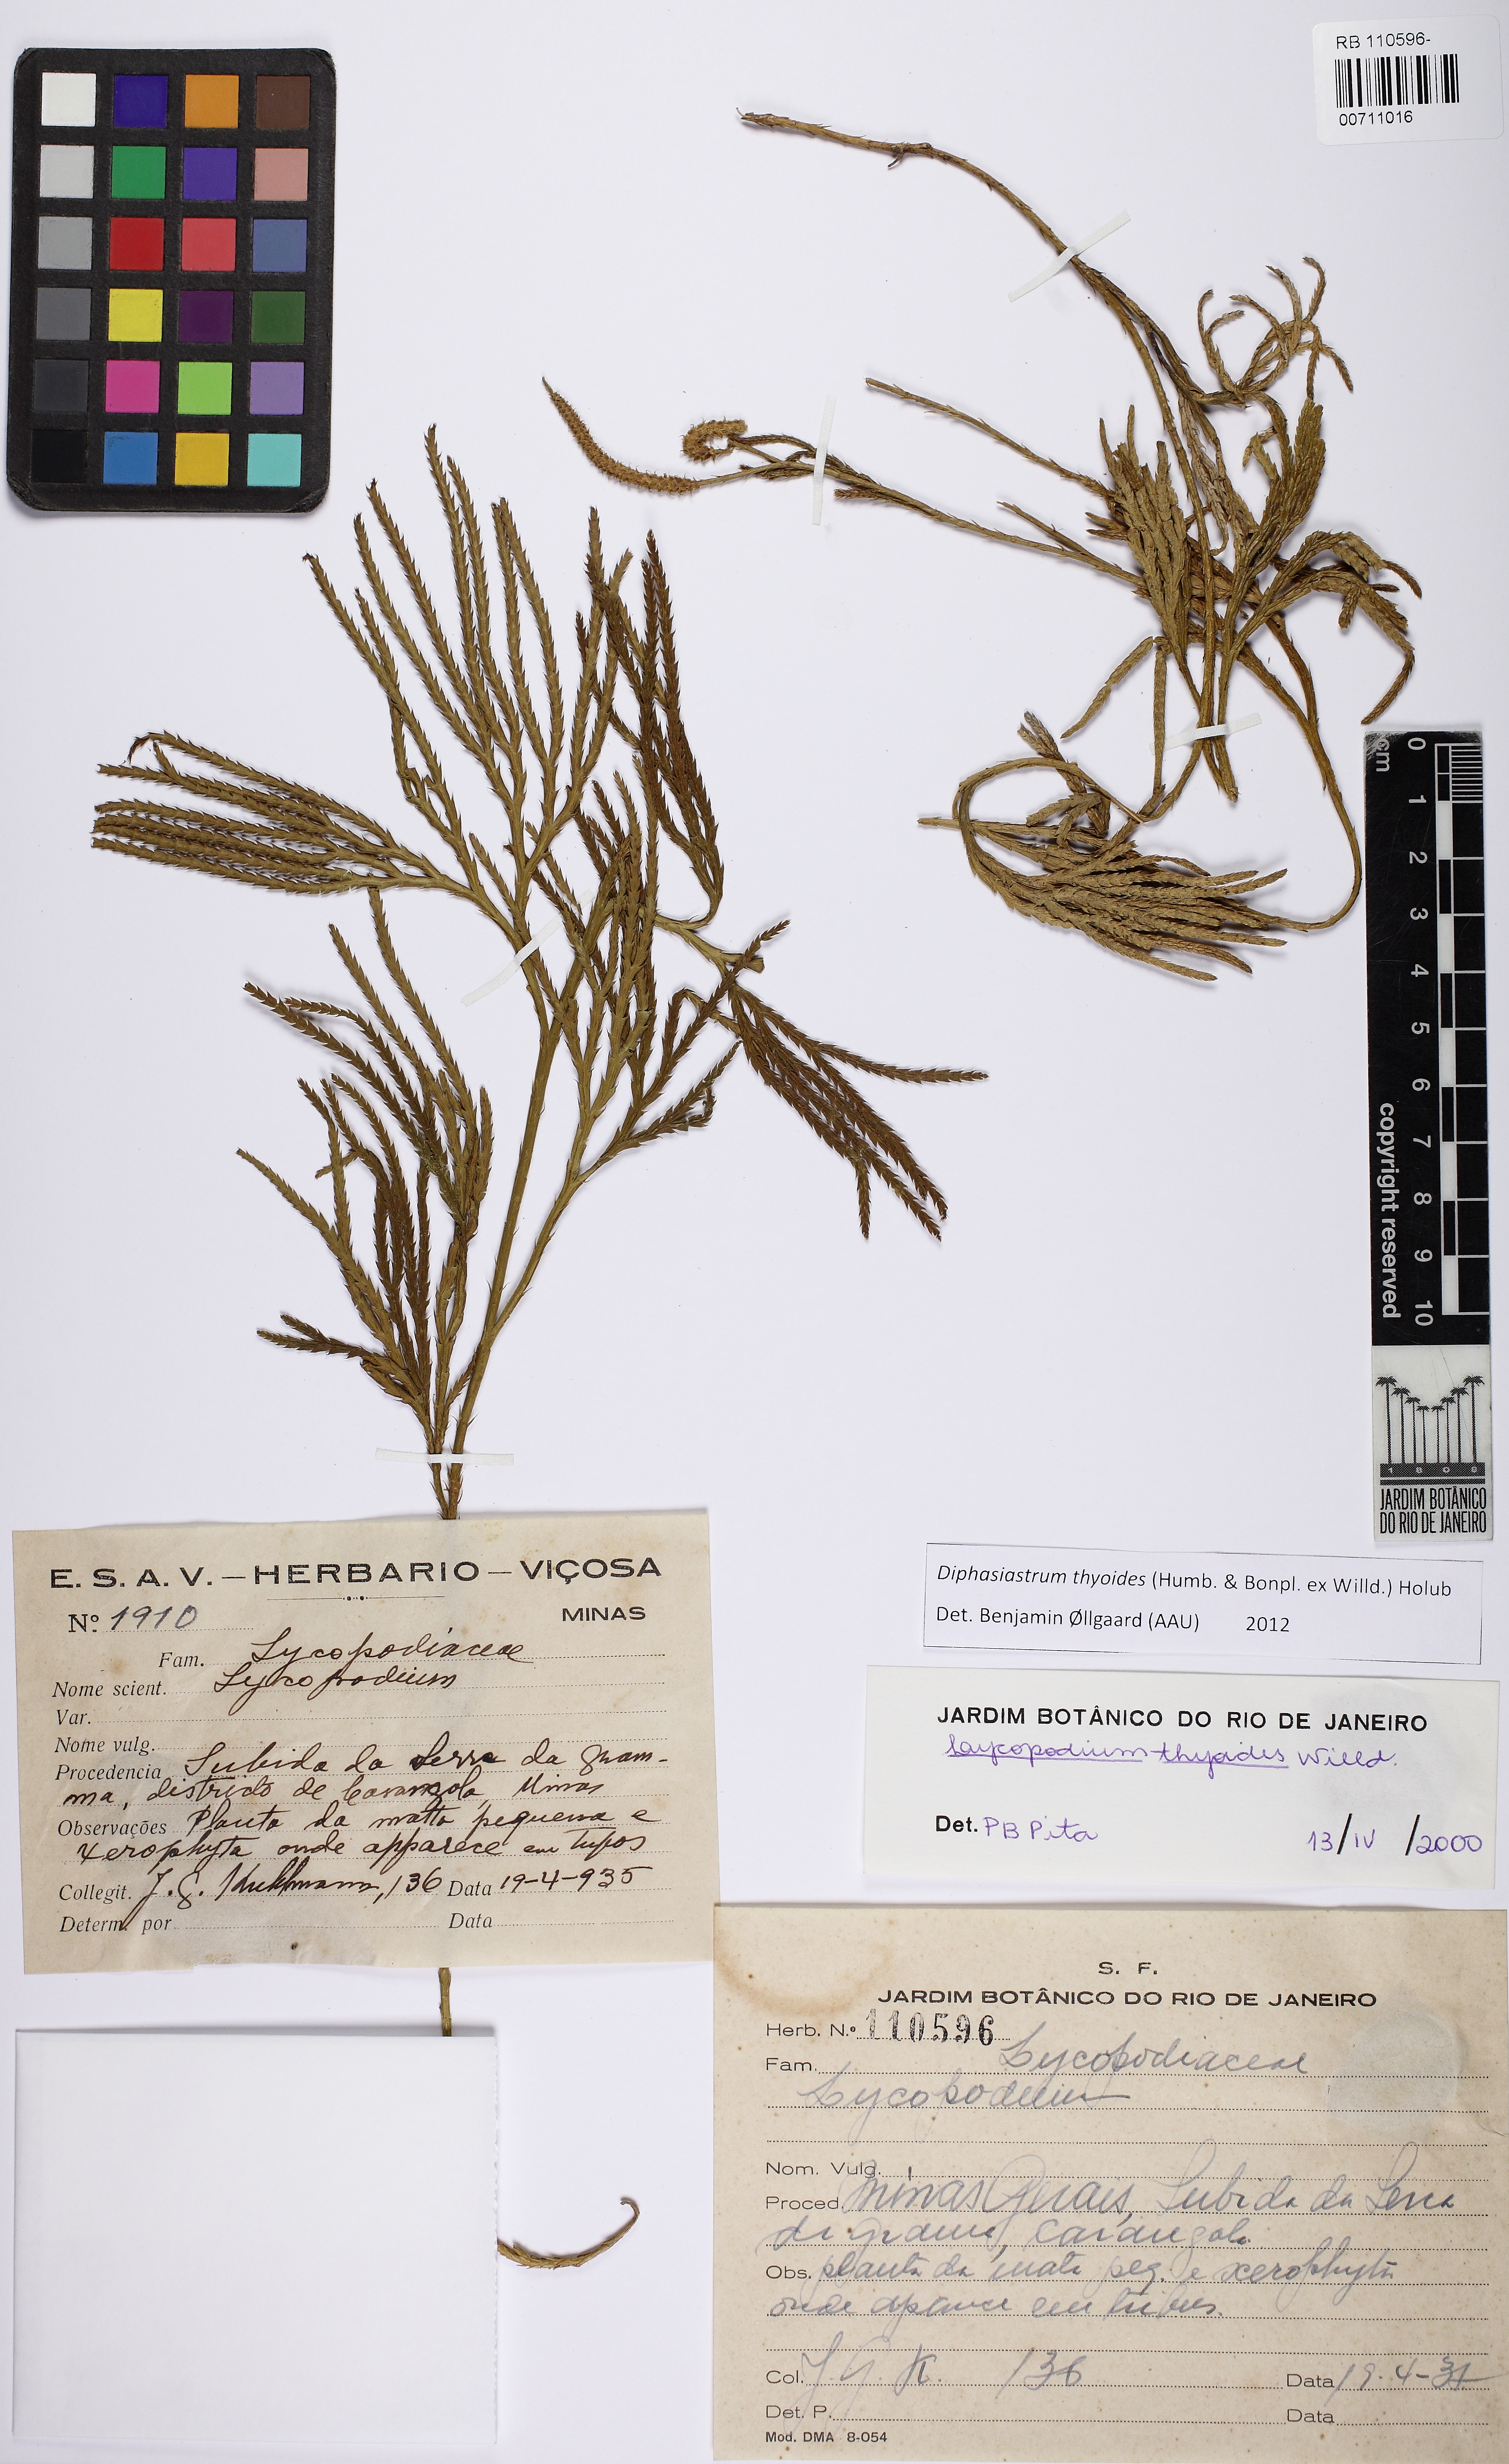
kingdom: Plantae
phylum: Tracheophyta
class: Lycopodiopsida
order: Lycopodiales
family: Lycopodiaceae
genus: Diphasiastrum
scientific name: Diphasiastrum thyoides
